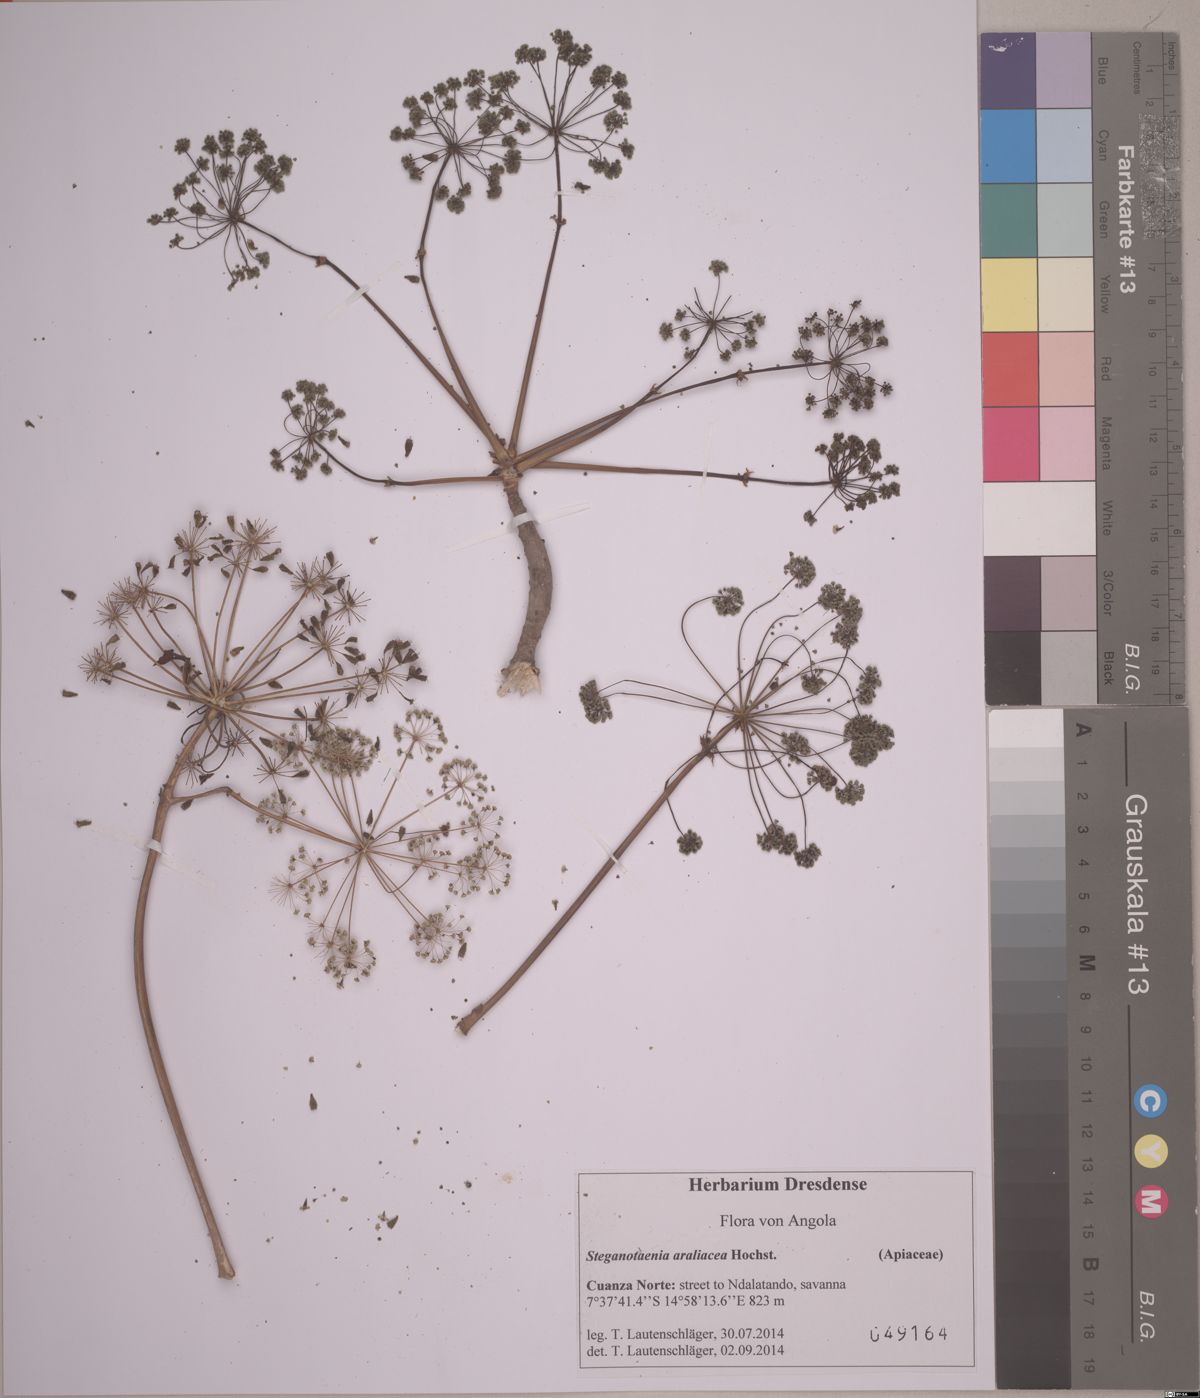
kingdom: Plantae
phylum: Tracheophyta
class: Magnoliopsida
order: Apiales
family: Apiaceae
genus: Steganotaenia
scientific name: Steganotaenia araliacea
